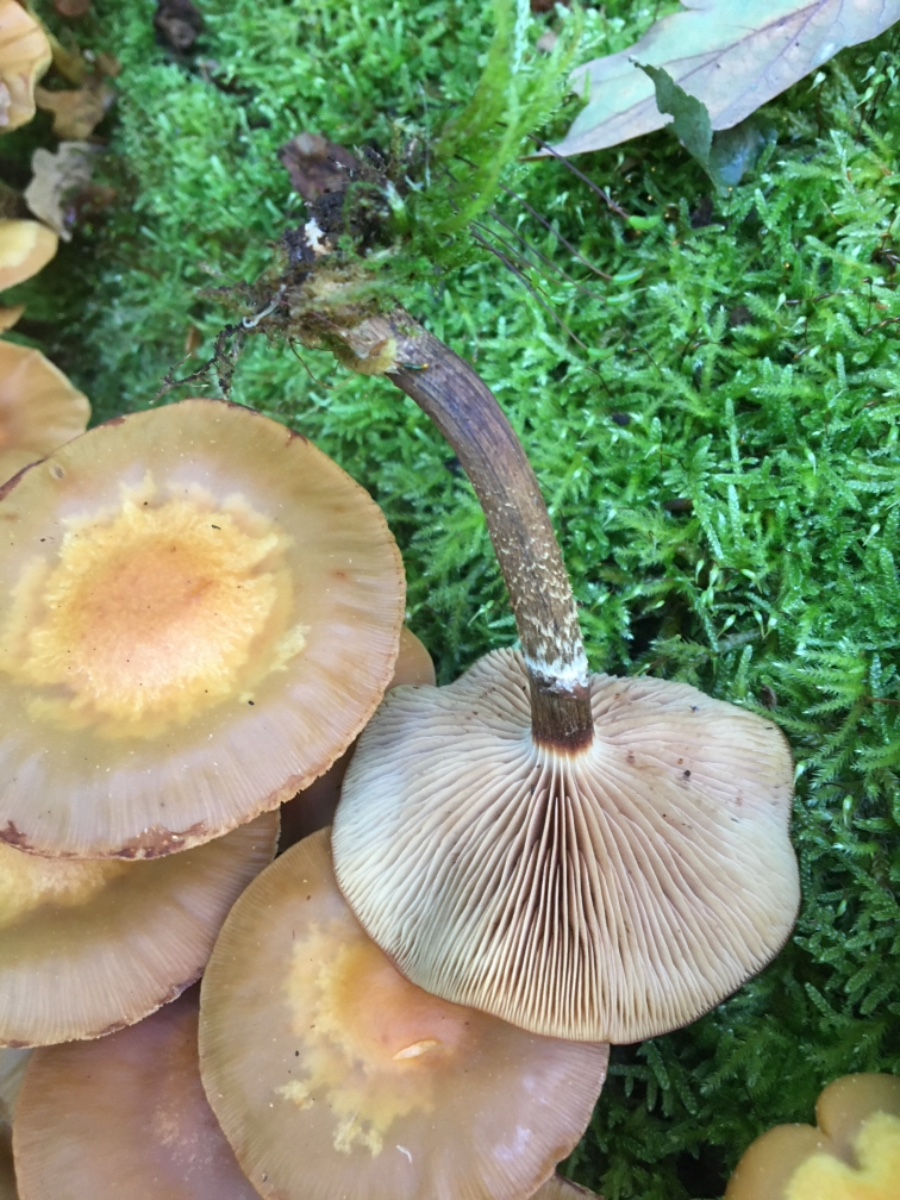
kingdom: Fungi
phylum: Basidiomycota
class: Agaricomycetes
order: Agaricales
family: Strophariaceae
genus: Kuehneromyces
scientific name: Kuehneromyces mutabilis
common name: foranderlig skælhat
